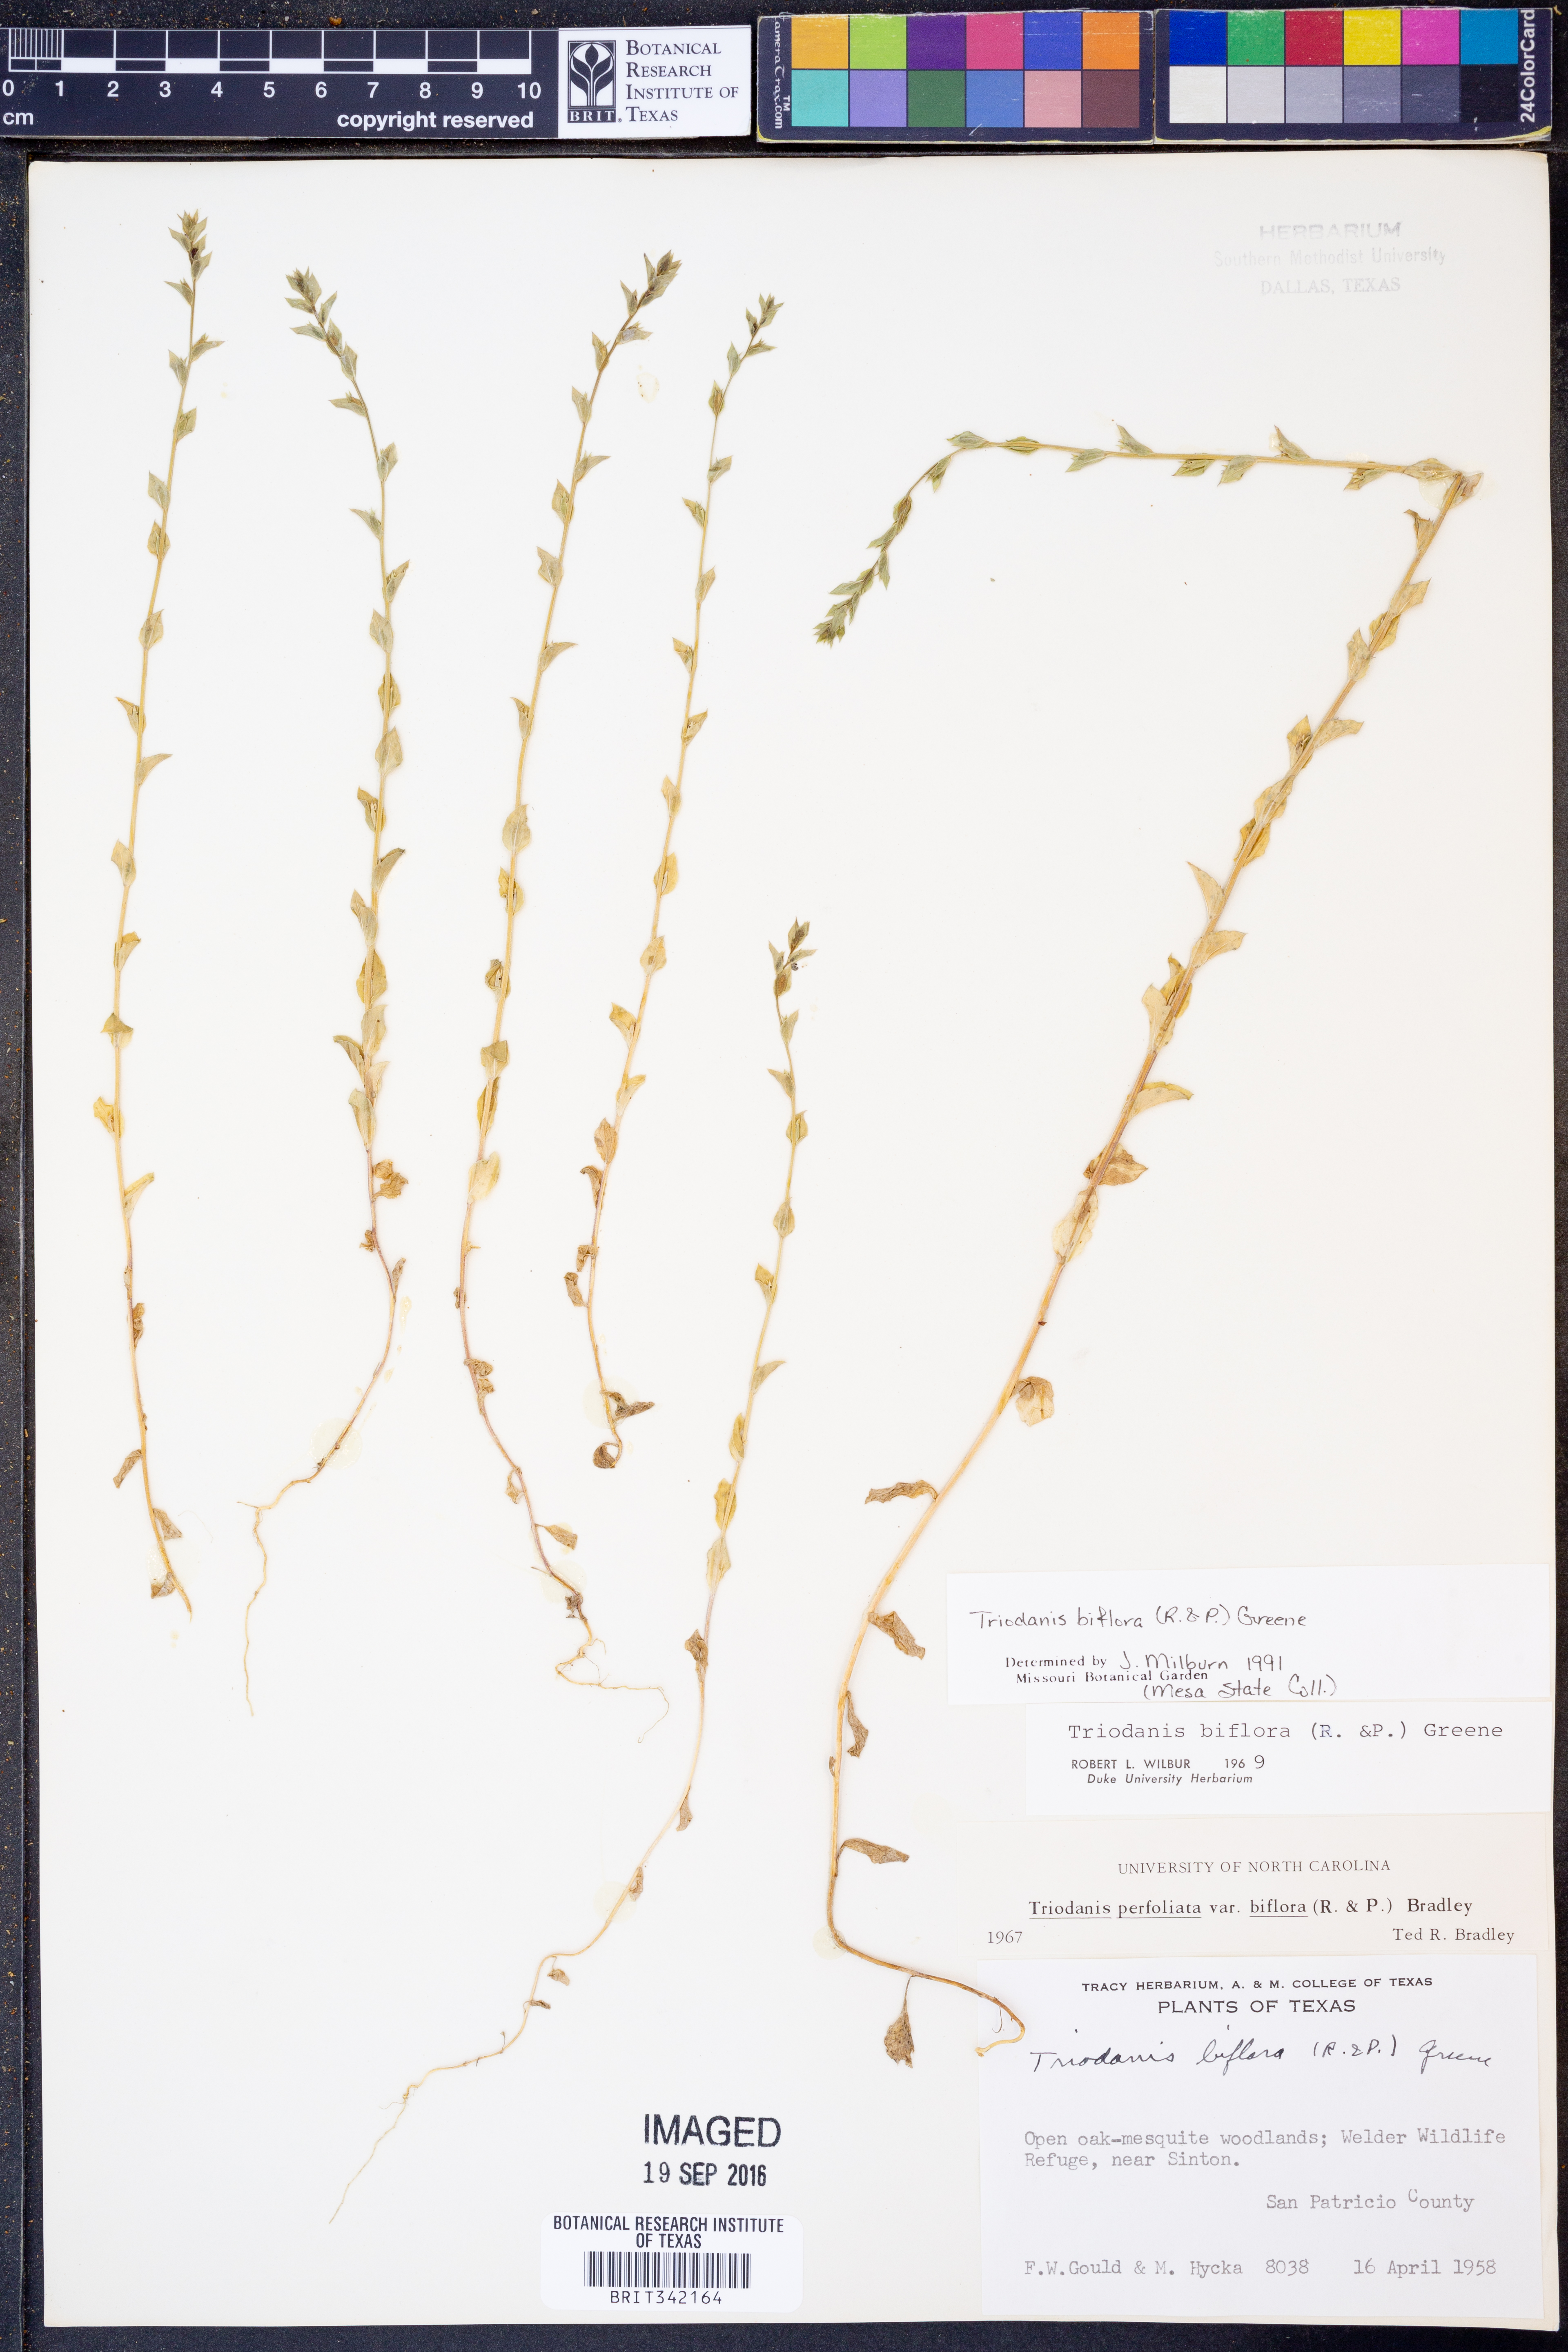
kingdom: Plantae
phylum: Tracheophyta
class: Magnoliopsida
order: Asterales
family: Campanulaceae
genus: Triodanis
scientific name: Triodanis perfoliata
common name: Clasping venus' looking-glass
